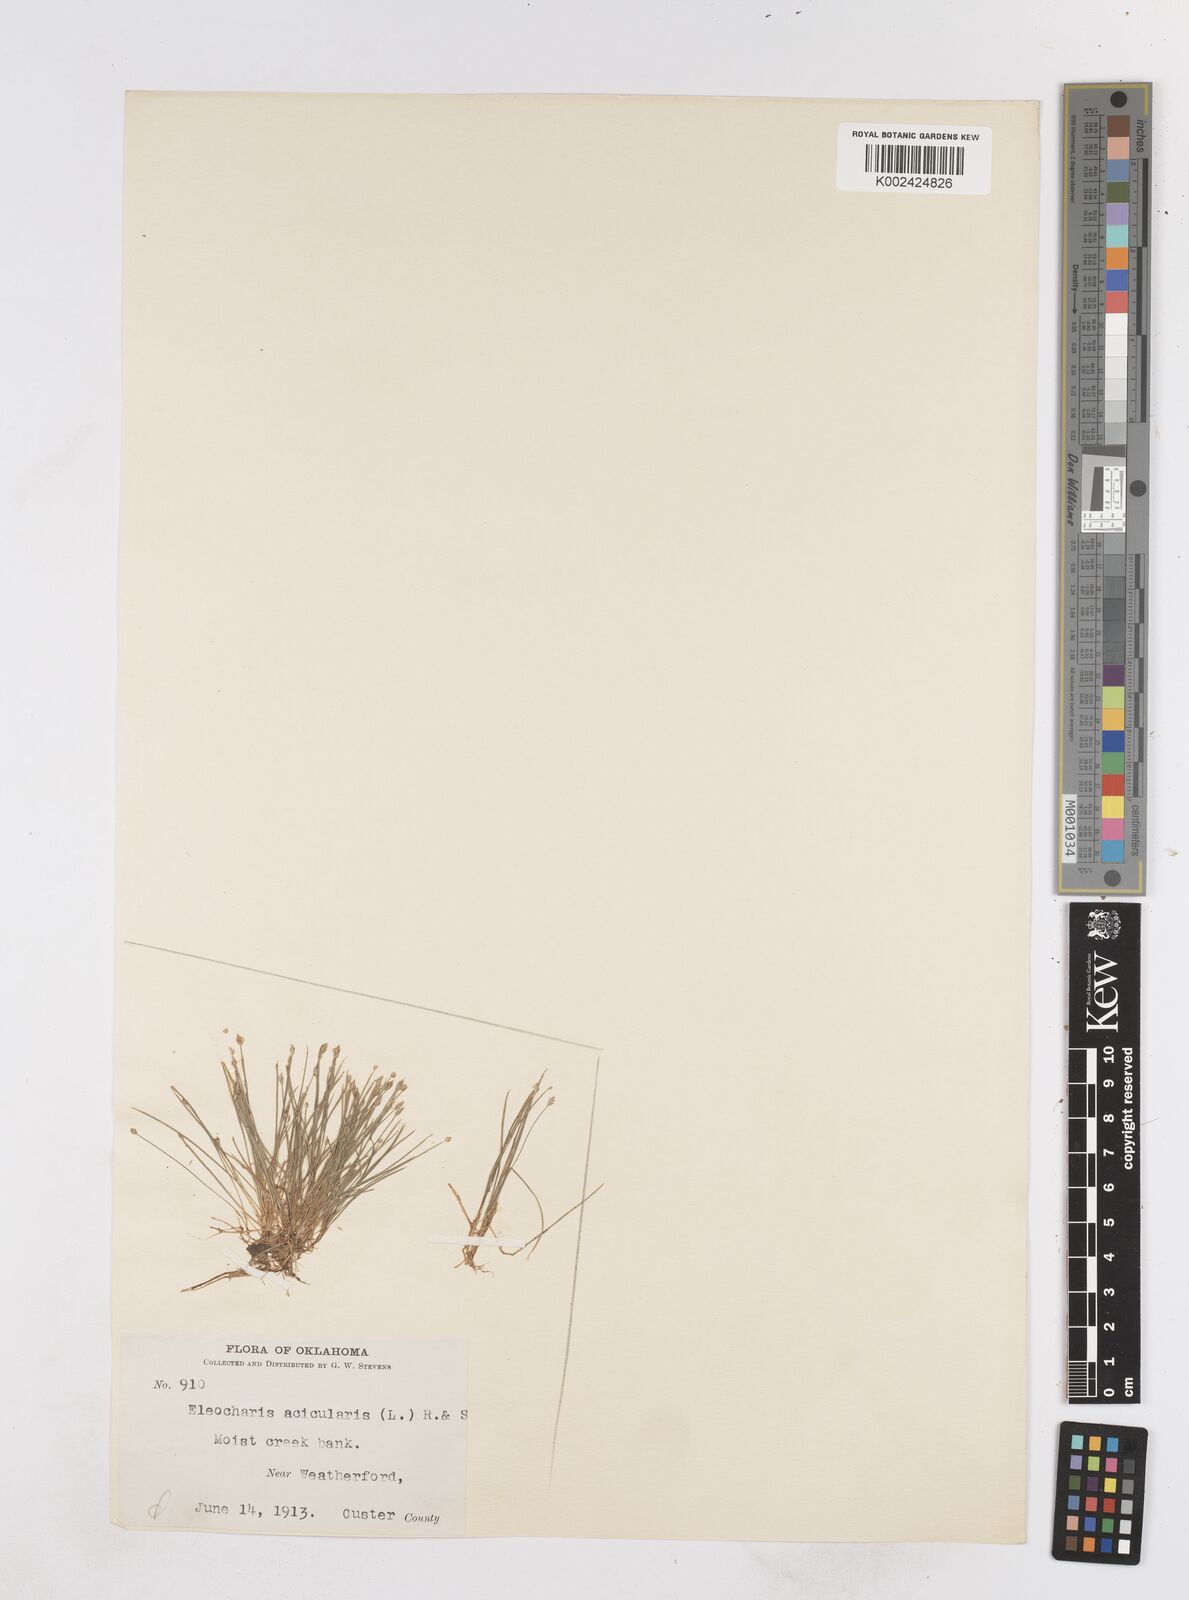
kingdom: Plantae
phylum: Tracheophyta
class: Liliopsida
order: Poales
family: Cyperaceae
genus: Eleocharis
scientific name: Eleocharis acicularis
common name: Needle spike-rush
